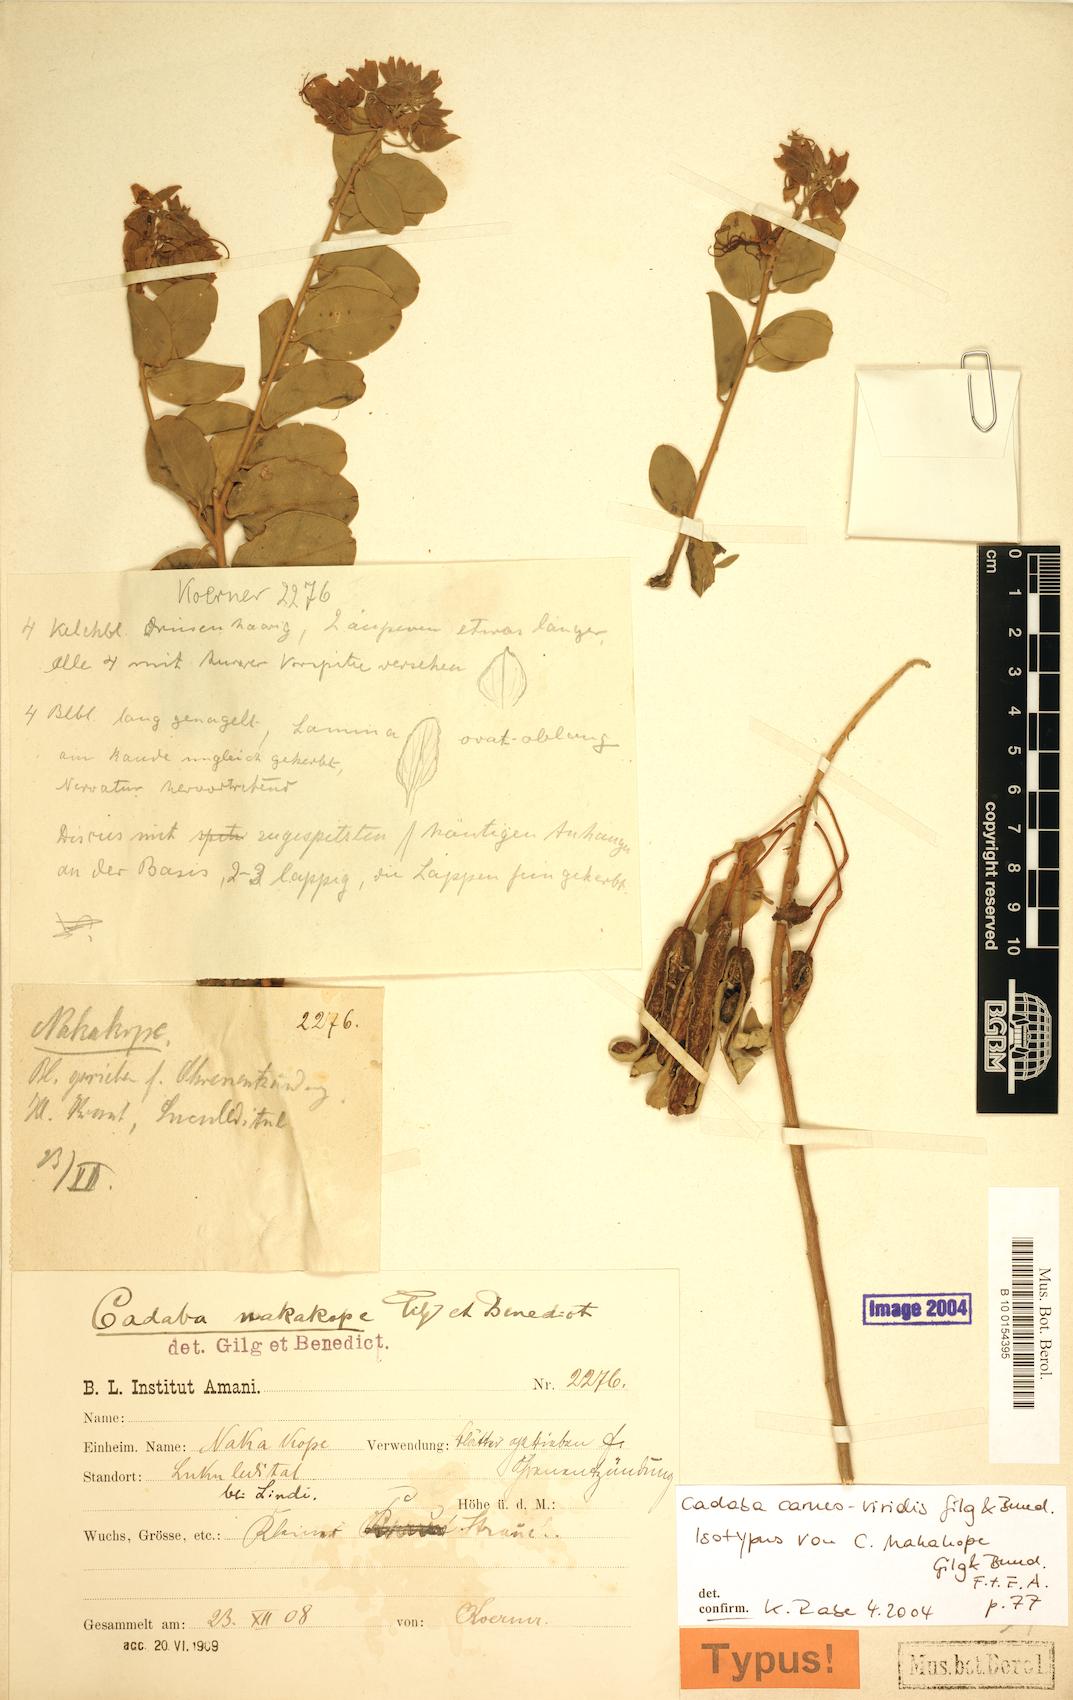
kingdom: Plantae
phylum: Tracheophyta
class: Magnoliopsida
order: Brassicales
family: Capparaceae
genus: Cadaba
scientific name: Cadaba carneoviridis
